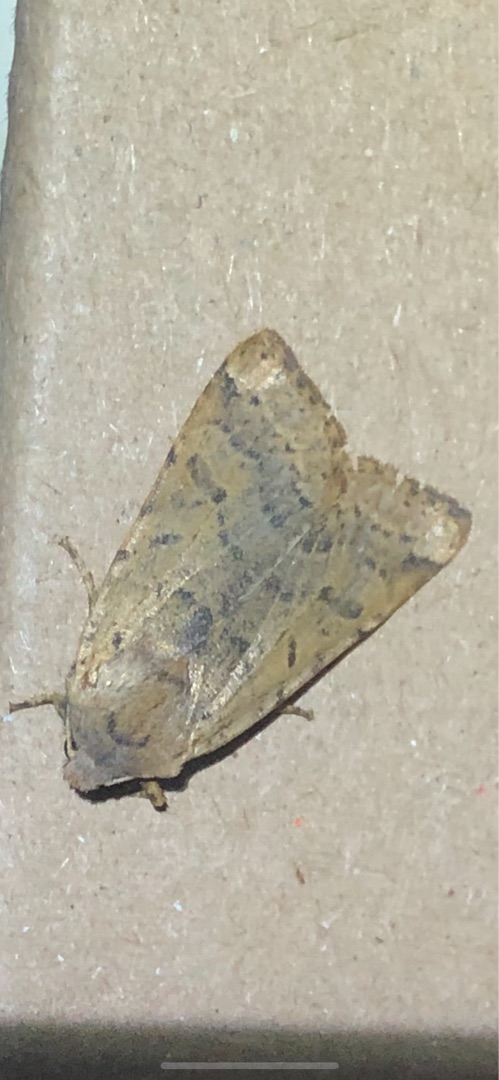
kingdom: Animalia
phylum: Arthropoda
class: Insecta
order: Lepidoptera
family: Noctuidae
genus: Agrochola
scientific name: Agrochola lychnidis
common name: Foranderlig jordfarveugle
